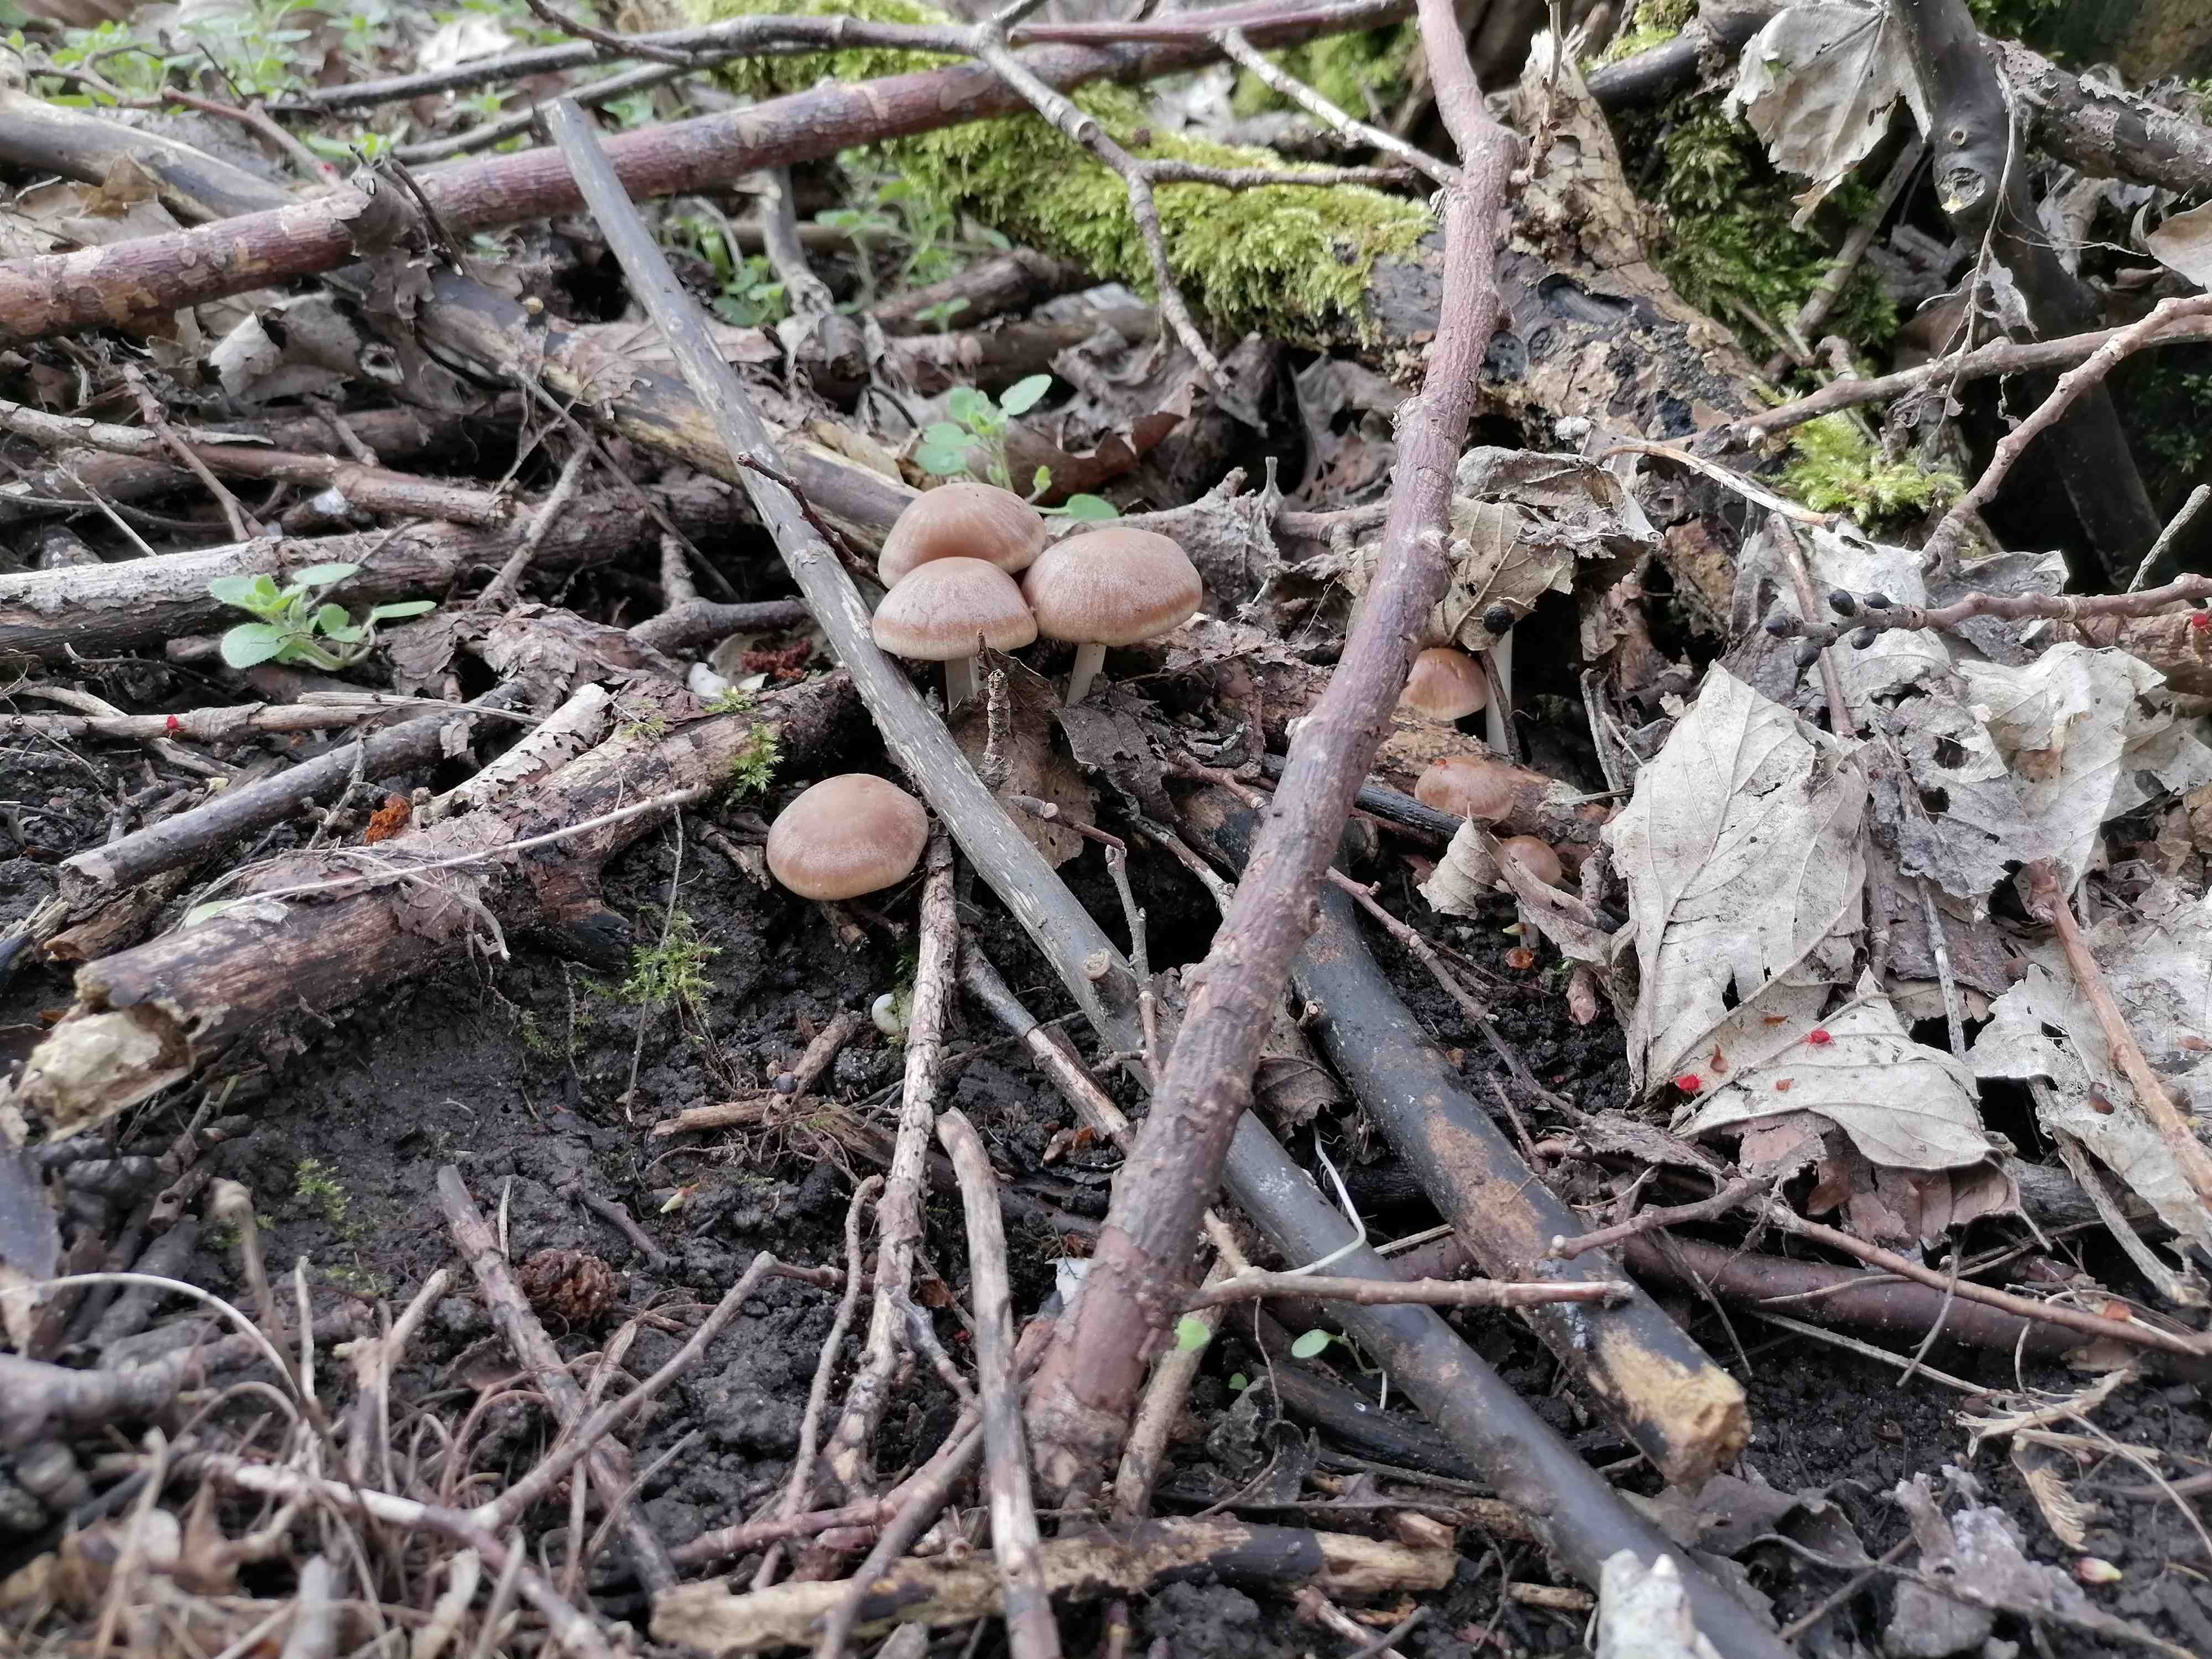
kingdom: Fungi
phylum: Basidiomycota
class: Agaricomycetes
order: Agaricales
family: Psathyrellaceae
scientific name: Psathyrellaceae
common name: mørkhatfamilien
